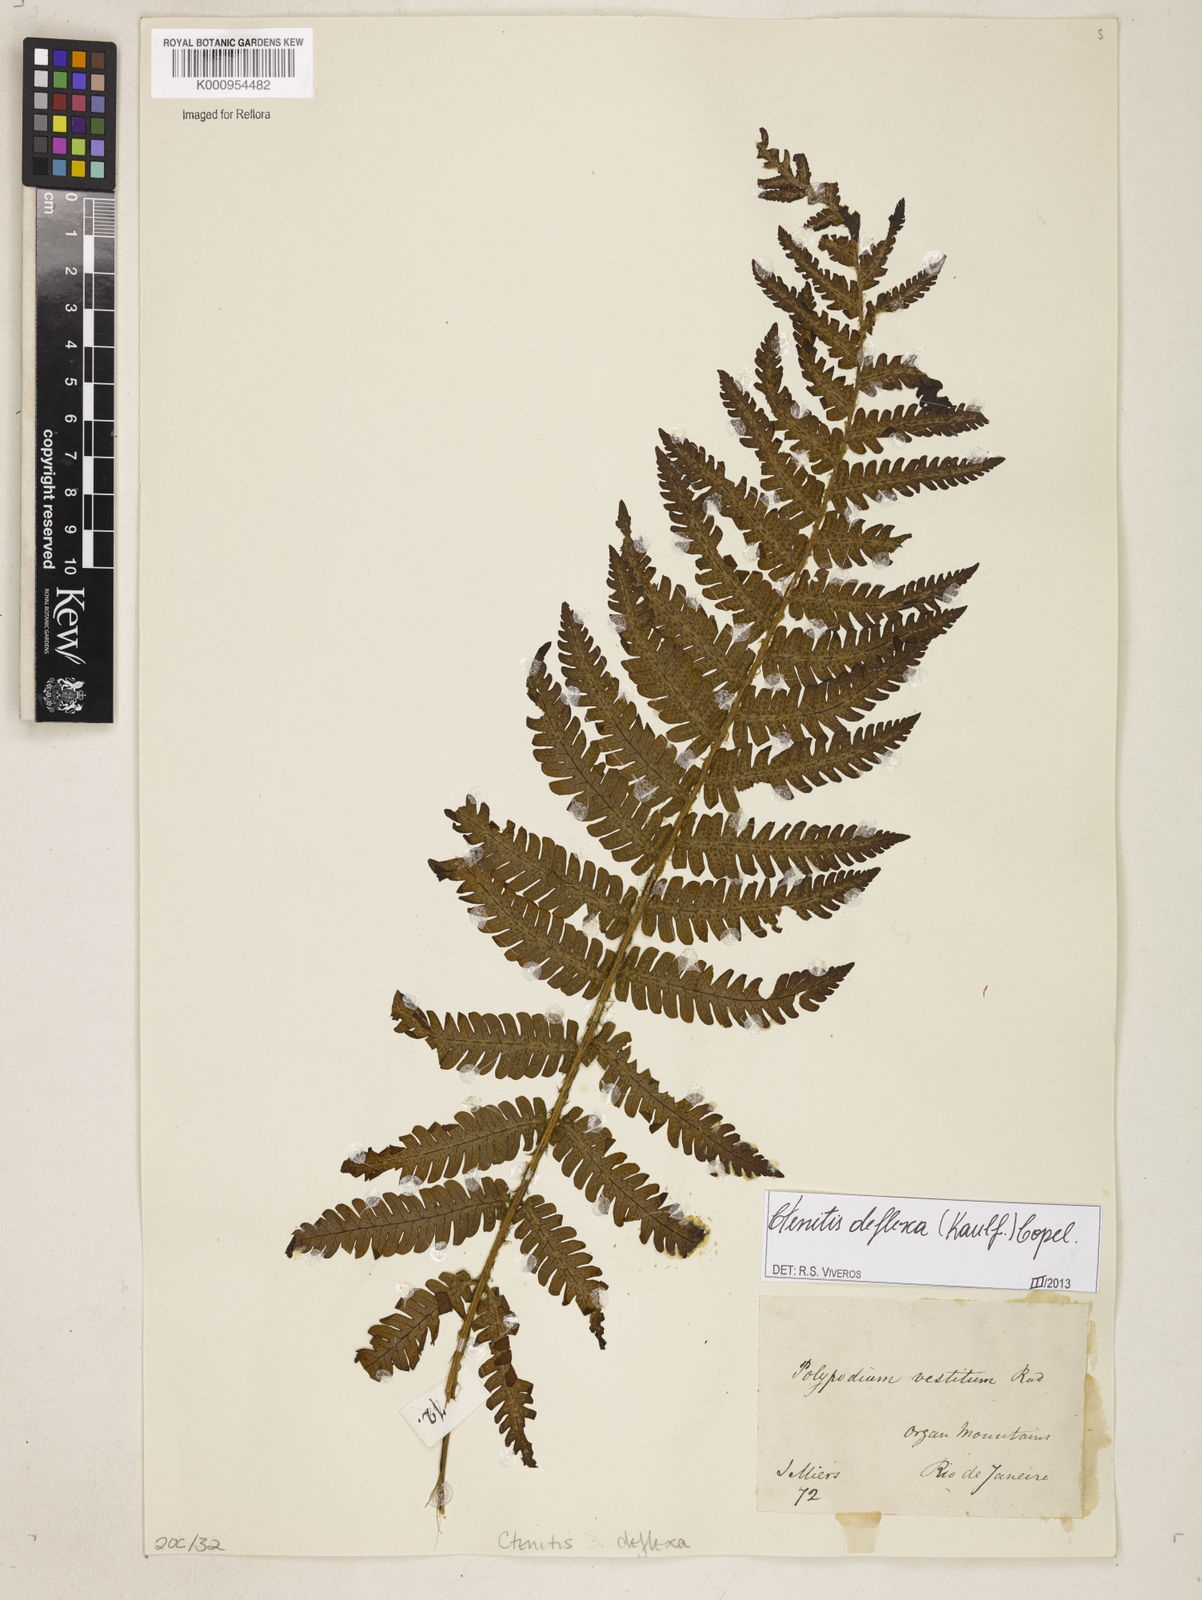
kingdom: Plantae
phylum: Tracheophyta
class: Polypodiopsida
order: Polypodiales
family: Dryopteridaceae
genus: Ctenitis
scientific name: Ctenitis deflexa
